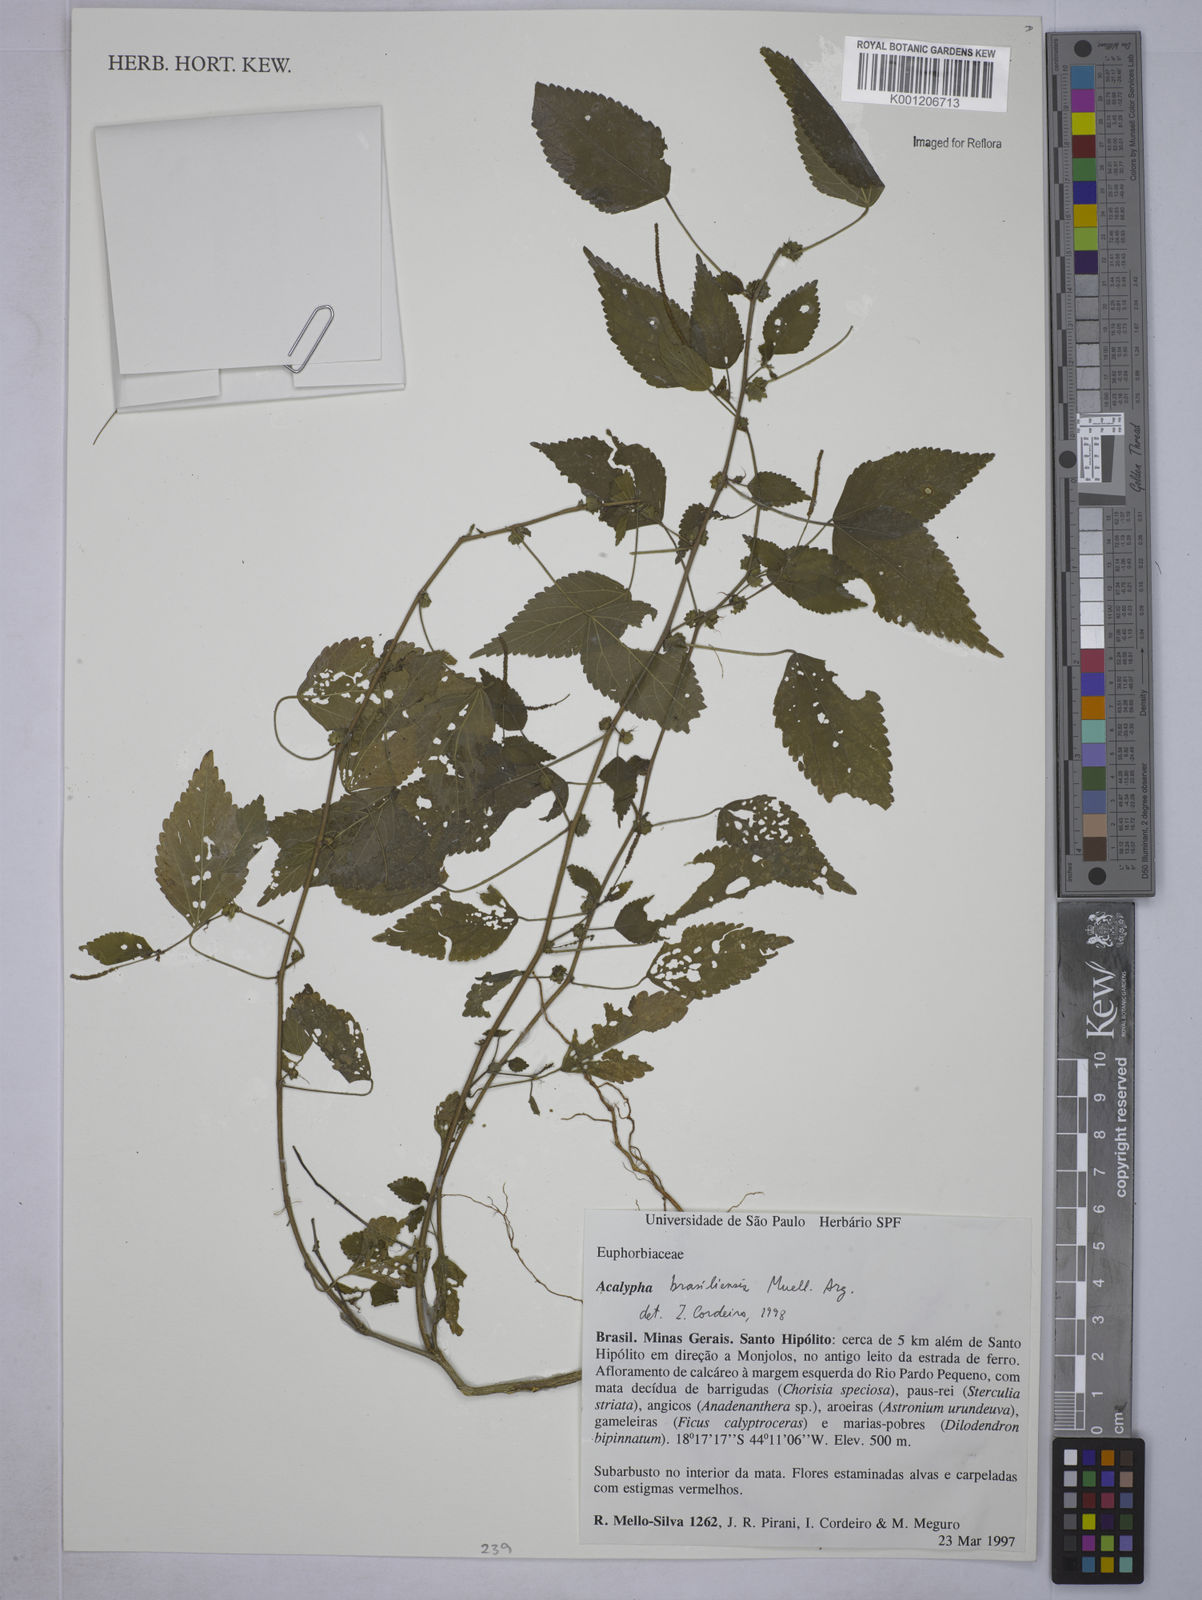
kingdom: Plantae
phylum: Tracheophyta
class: Magnoliopsida
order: Malpighiales
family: Euphorbiaceae
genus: Acalypha
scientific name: Acalypha
